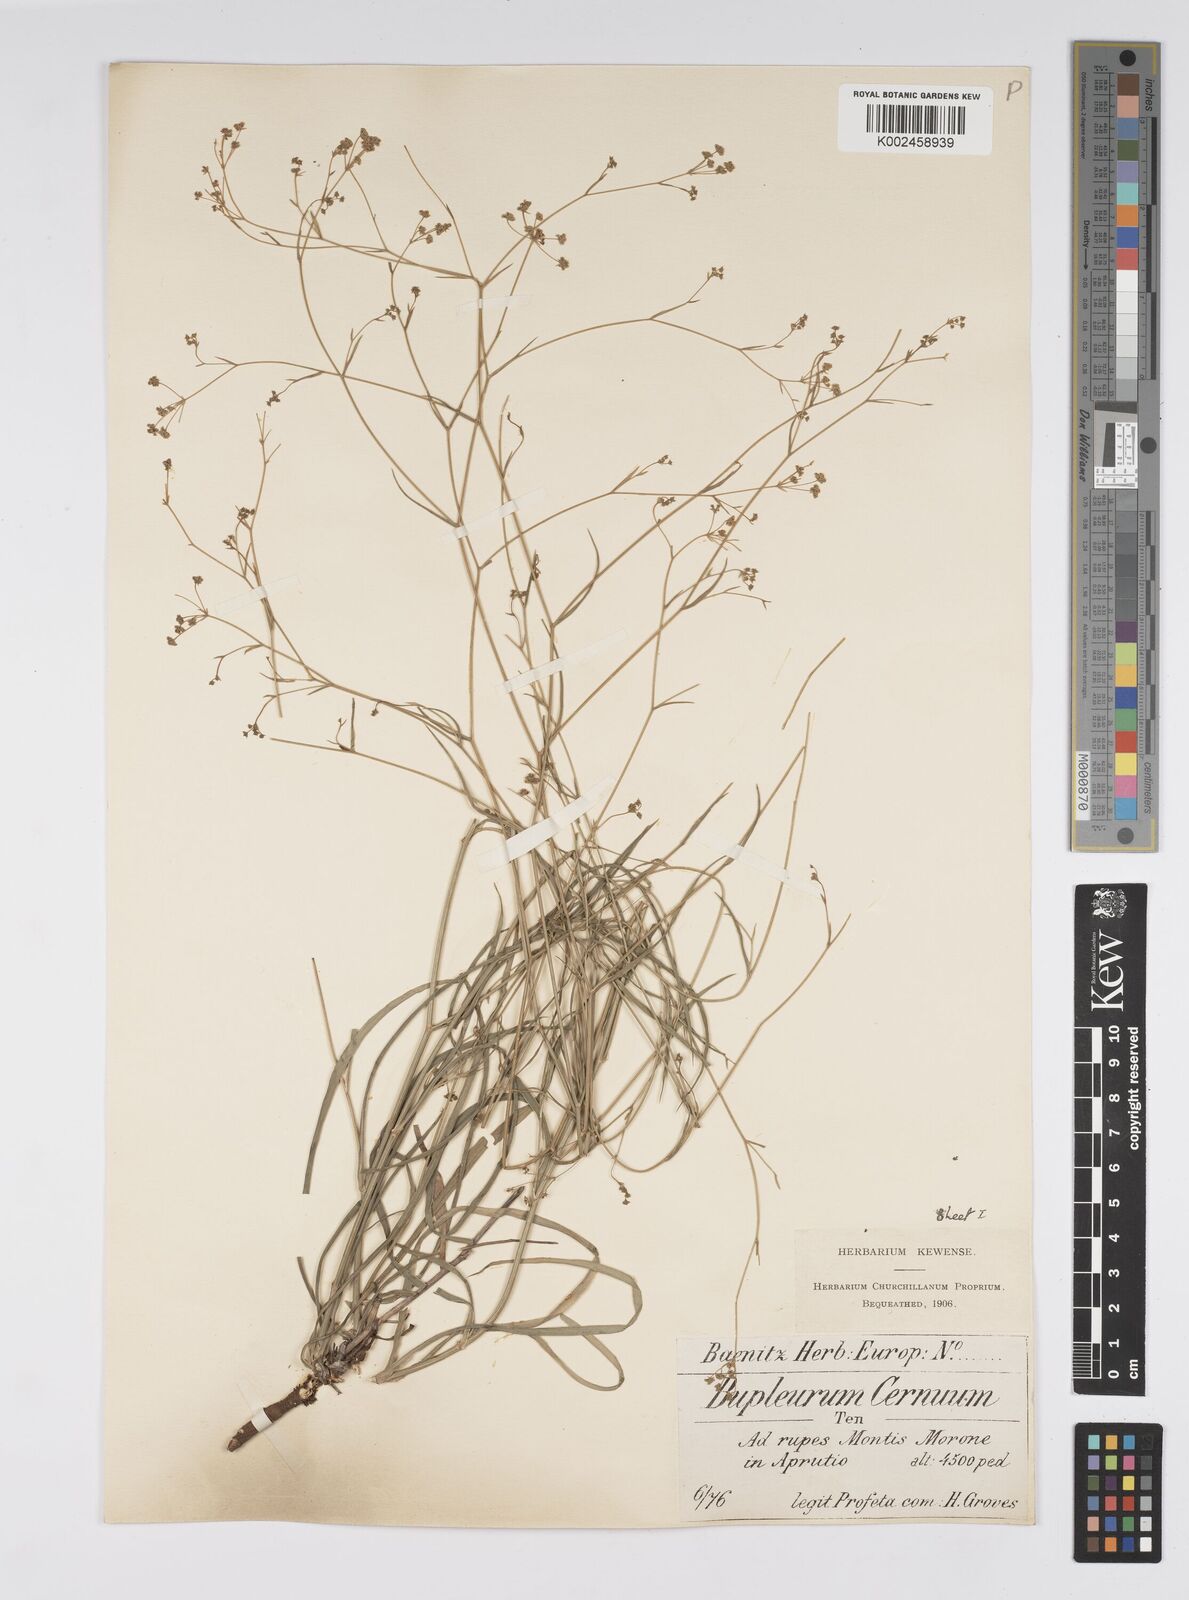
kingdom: Plantae
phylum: Tracheophyta
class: Magnoliopsida
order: Apiales
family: Apiaceae
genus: Bupleurum
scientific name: Bupleurum falcatum
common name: Sickle-leaved hare's-ear
